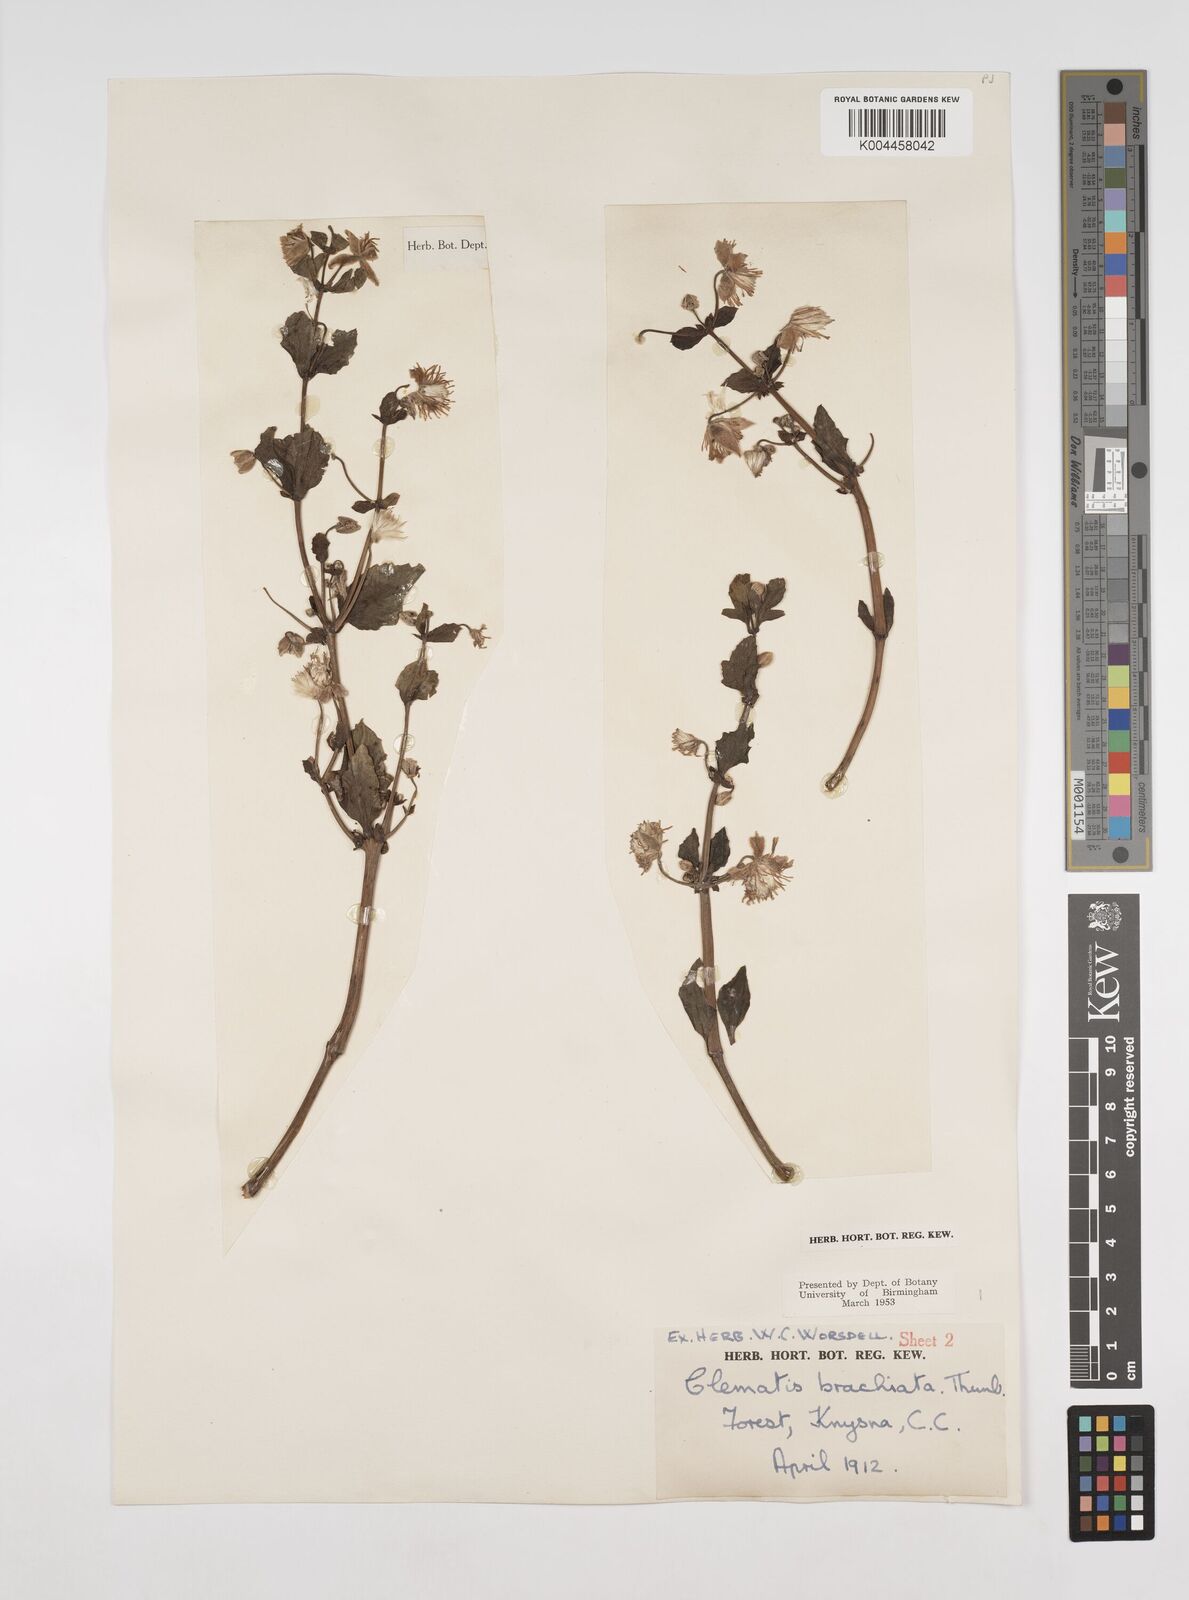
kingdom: Plantae
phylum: Tracheophyta
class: Magnoliopsida
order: Ranunculales
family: Ranunculaceae
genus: Clematis
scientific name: Clematis brachiata
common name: Traveler's-joy
